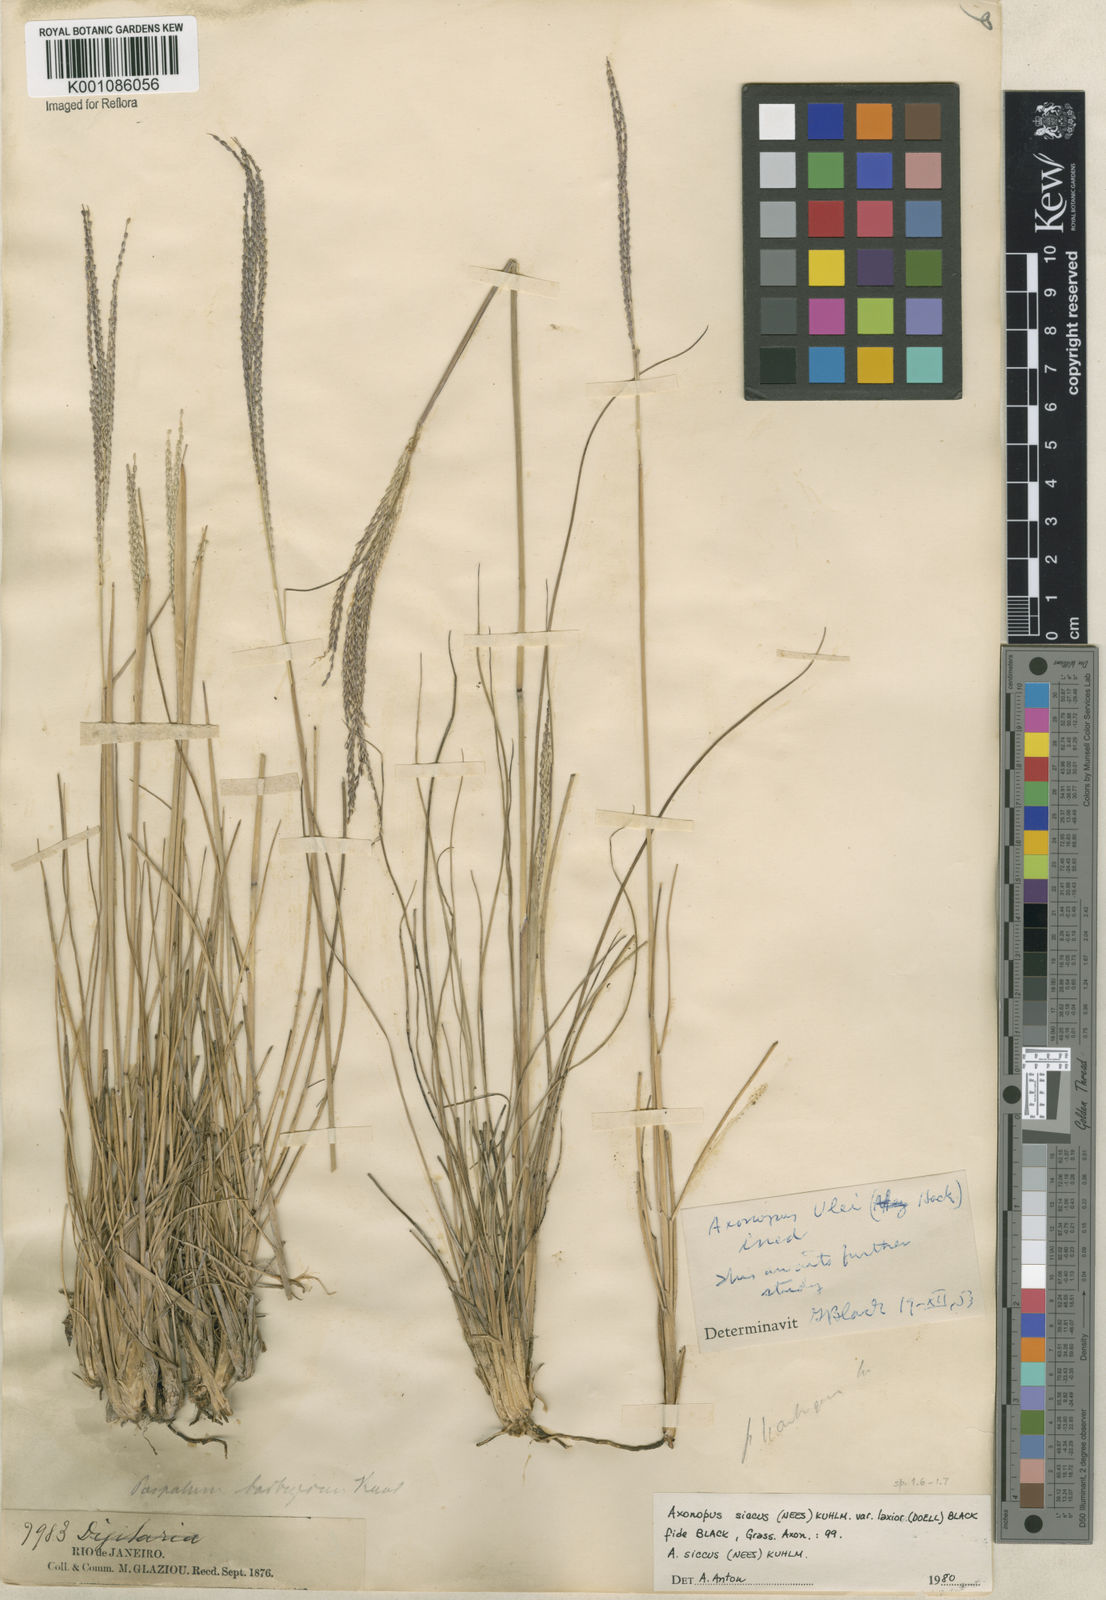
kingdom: Plantae
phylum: Tracheophyta
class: Liliopsida
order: Poales
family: Poaceae
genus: Axonopus
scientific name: Axonopus siccus
